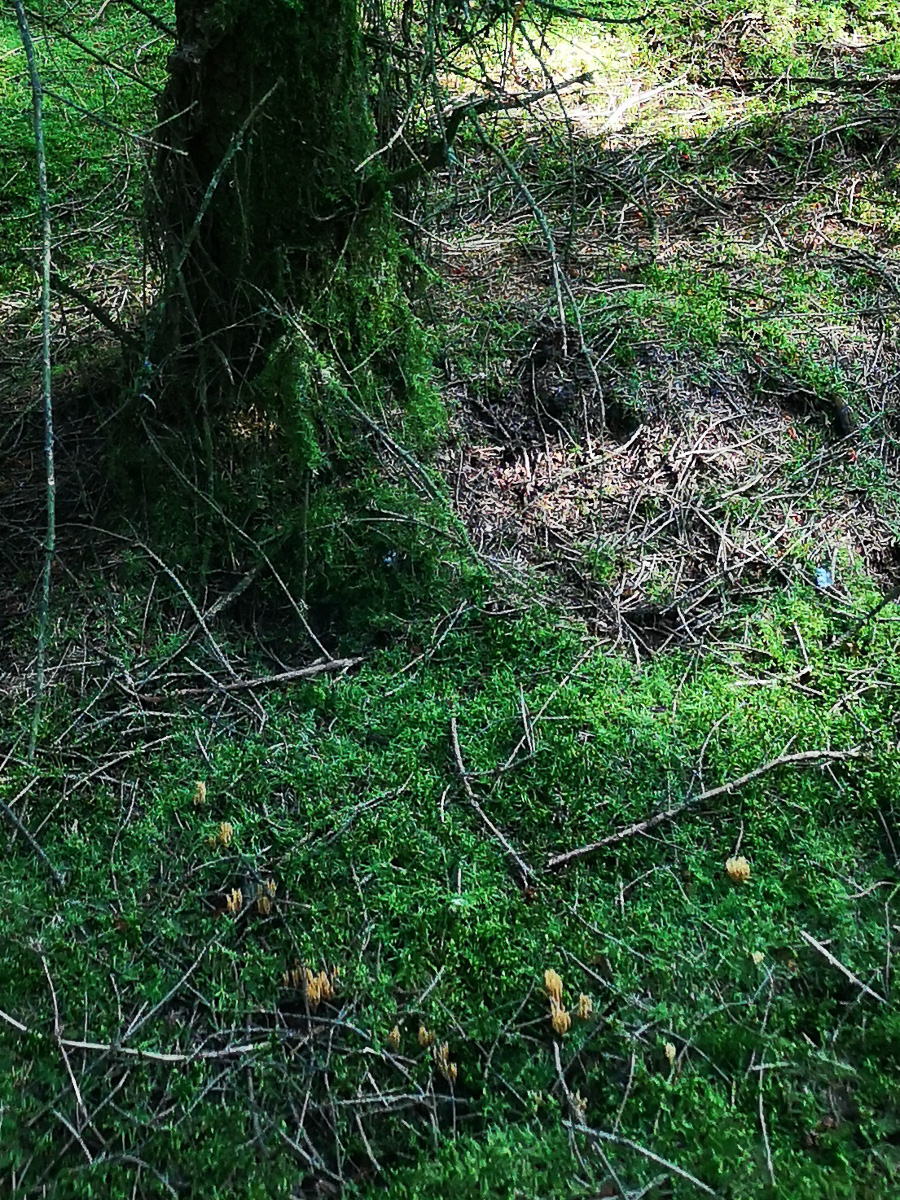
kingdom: Fungi
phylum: Basidiomycota
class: Agaricomycetes
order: Gomphales
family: Gomphaceae
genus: Phaeoclavulina
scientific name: Phaeoclavulina eumorpha
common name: gran-koralsvamp
